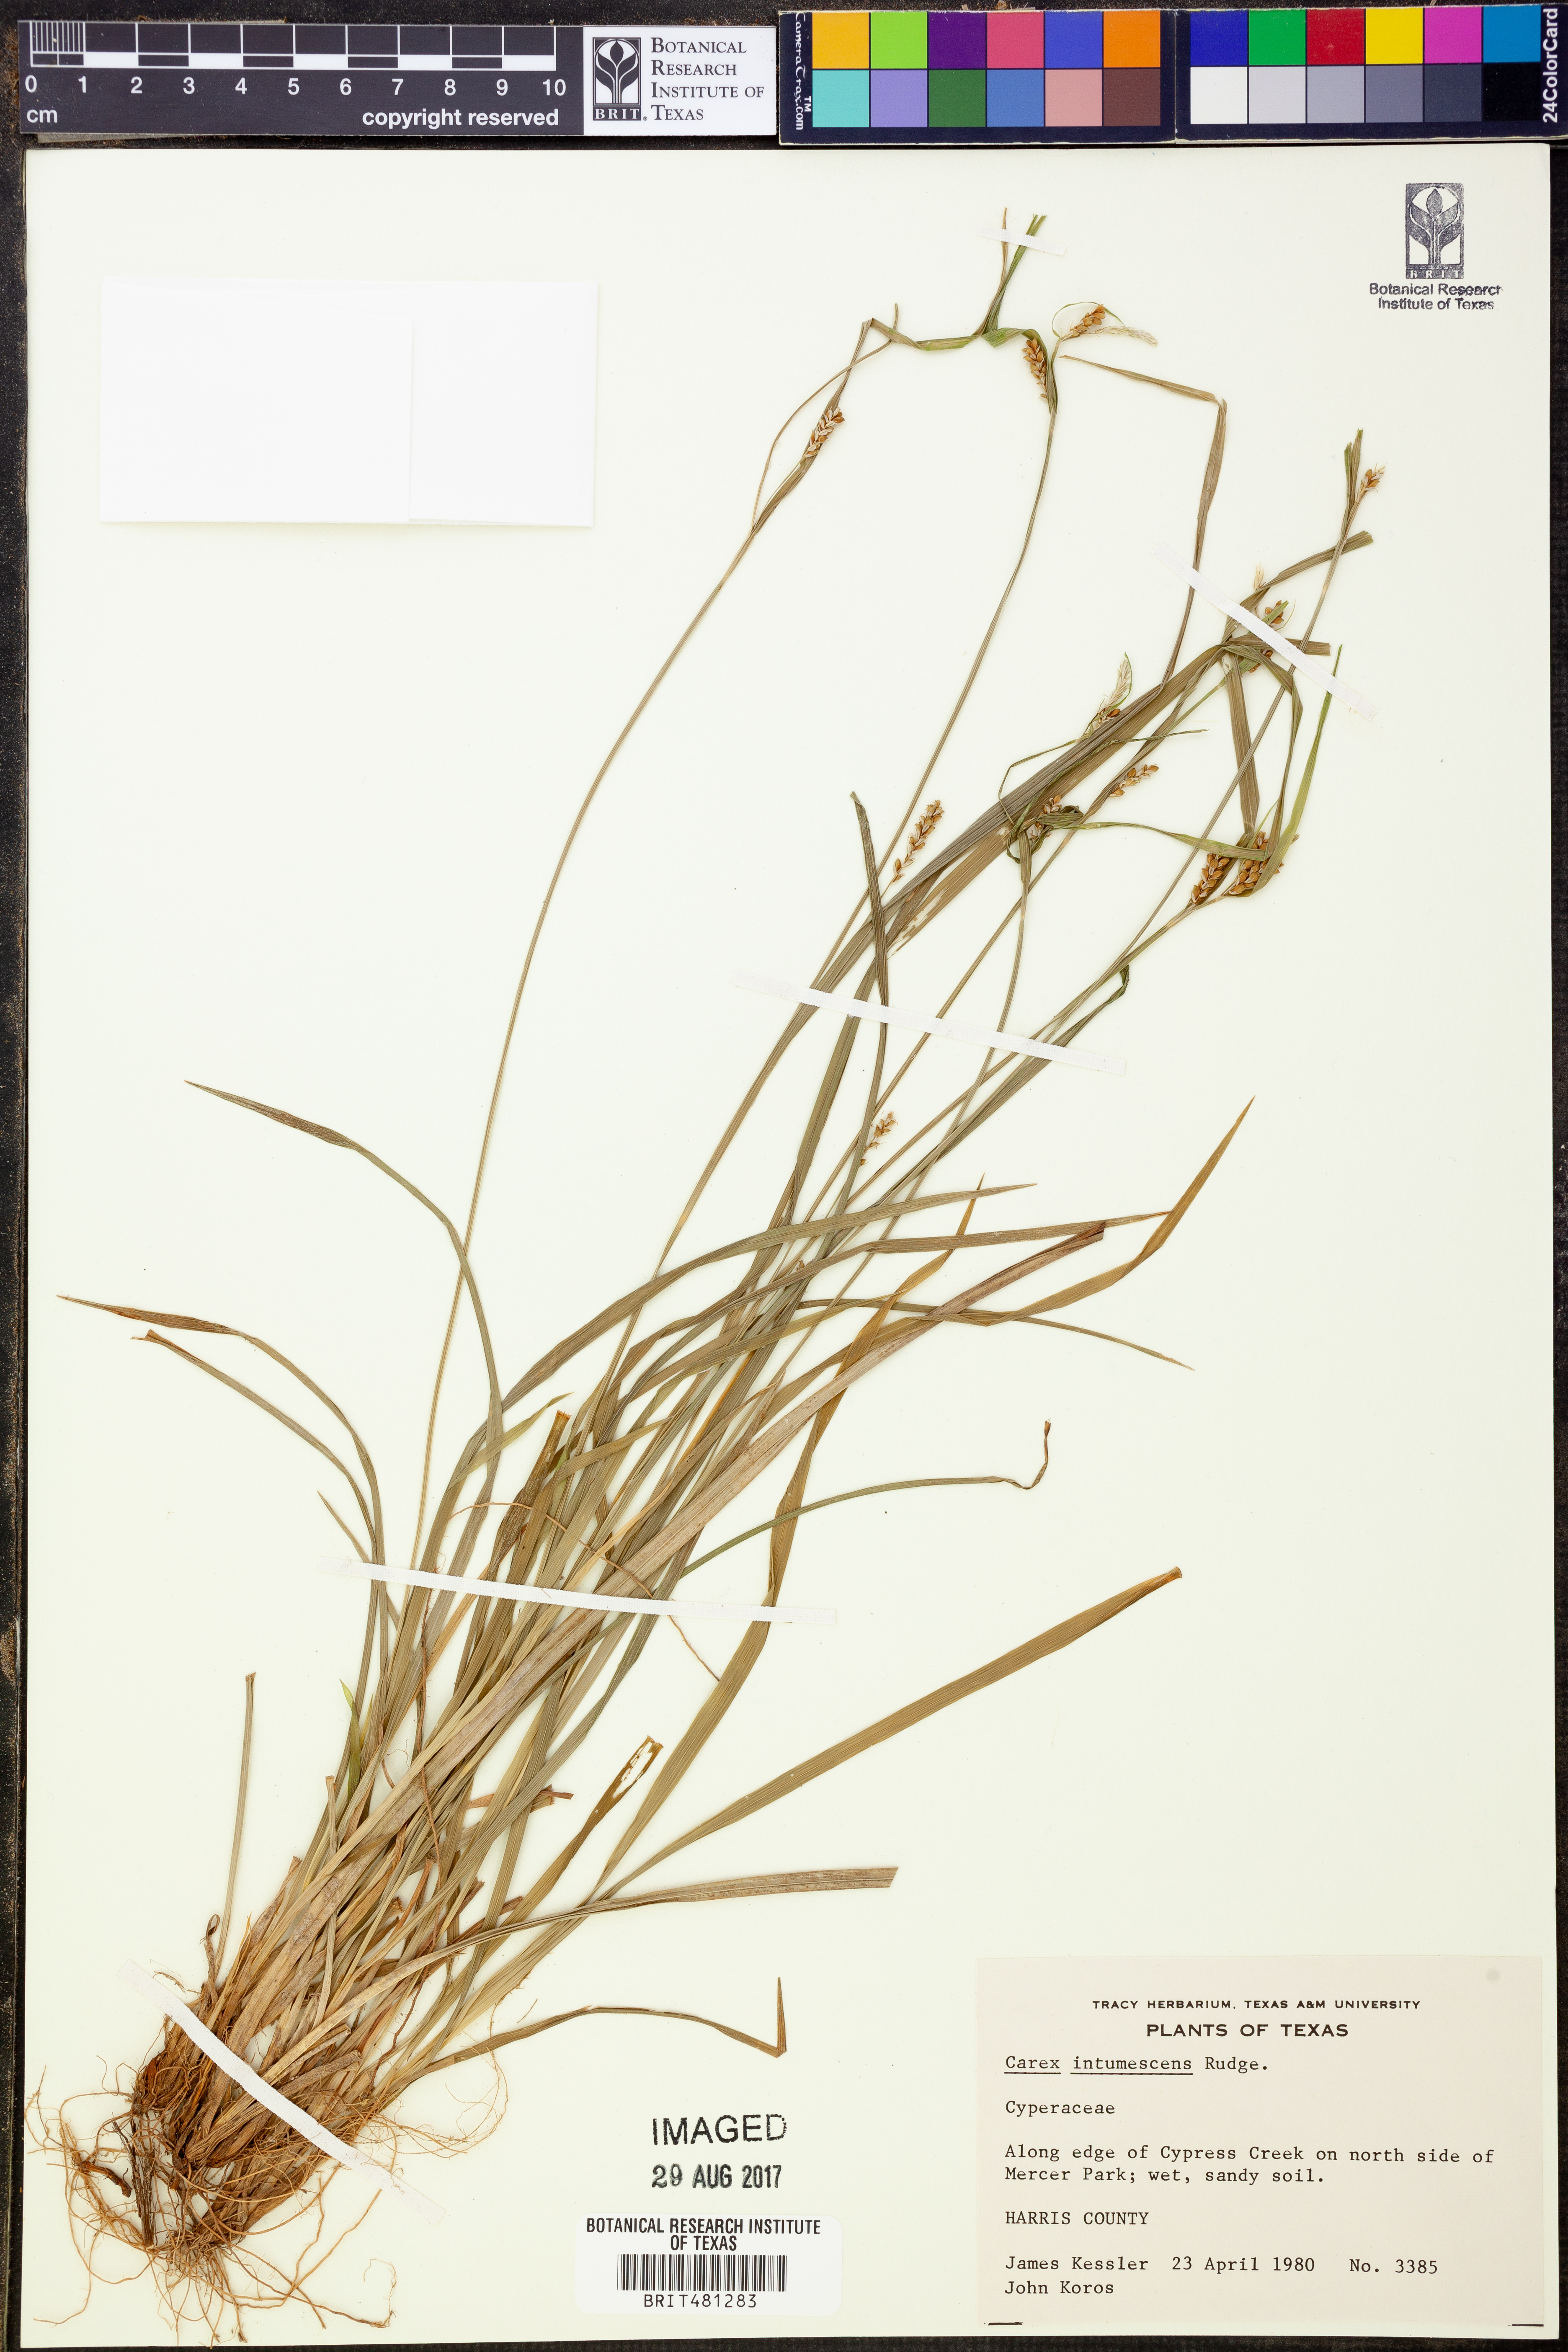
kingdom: Plantae
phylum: Tracheophyta
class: Liliopsida
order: Poales
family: Cyperaceae
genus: Carex
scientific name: Carex intumescens
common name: Greater bladder sedge
